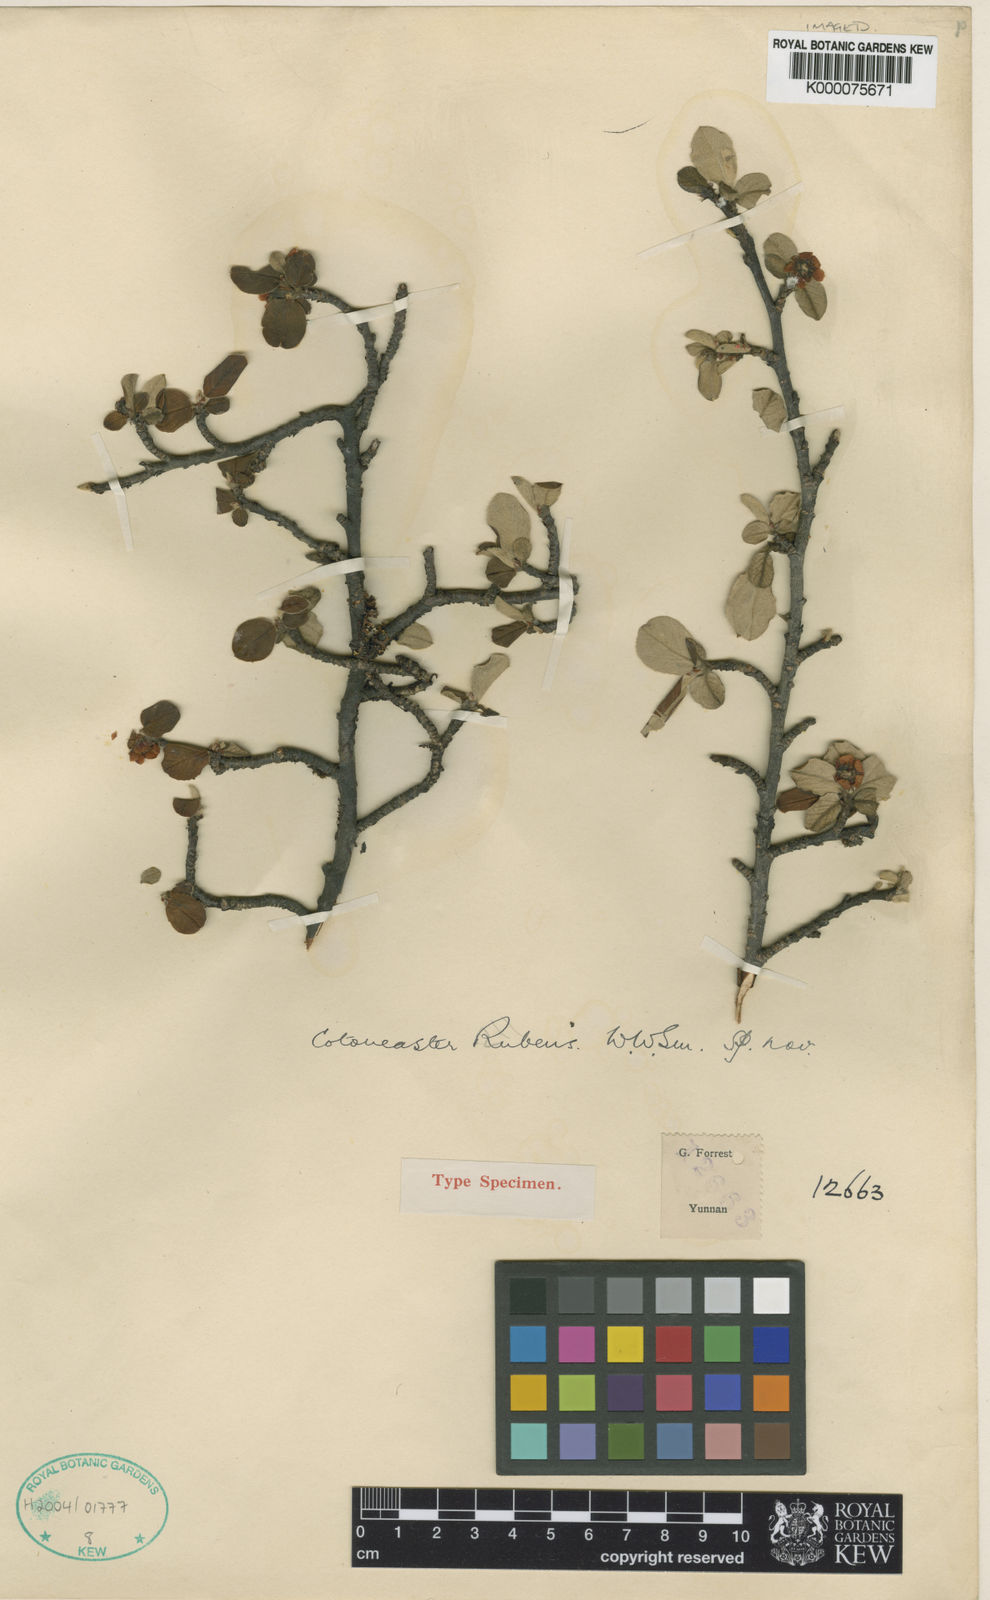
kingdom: Plantae
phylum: Tracheophyta
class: Magnoliopsida
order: Rosales
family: Rosaceae
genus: Cotoneaster
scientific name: Cotoneaster rubens
